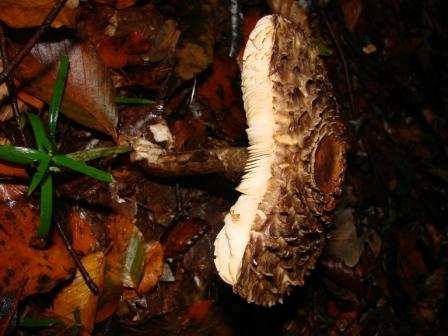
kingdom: Fungi
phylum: Basidiomycota
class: Agaricomycetes
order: Agaricales
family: Agaricaceae
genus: Chlorophyllum
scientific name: Chlorophyllum rhacodes
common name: ægte rabarberhat
